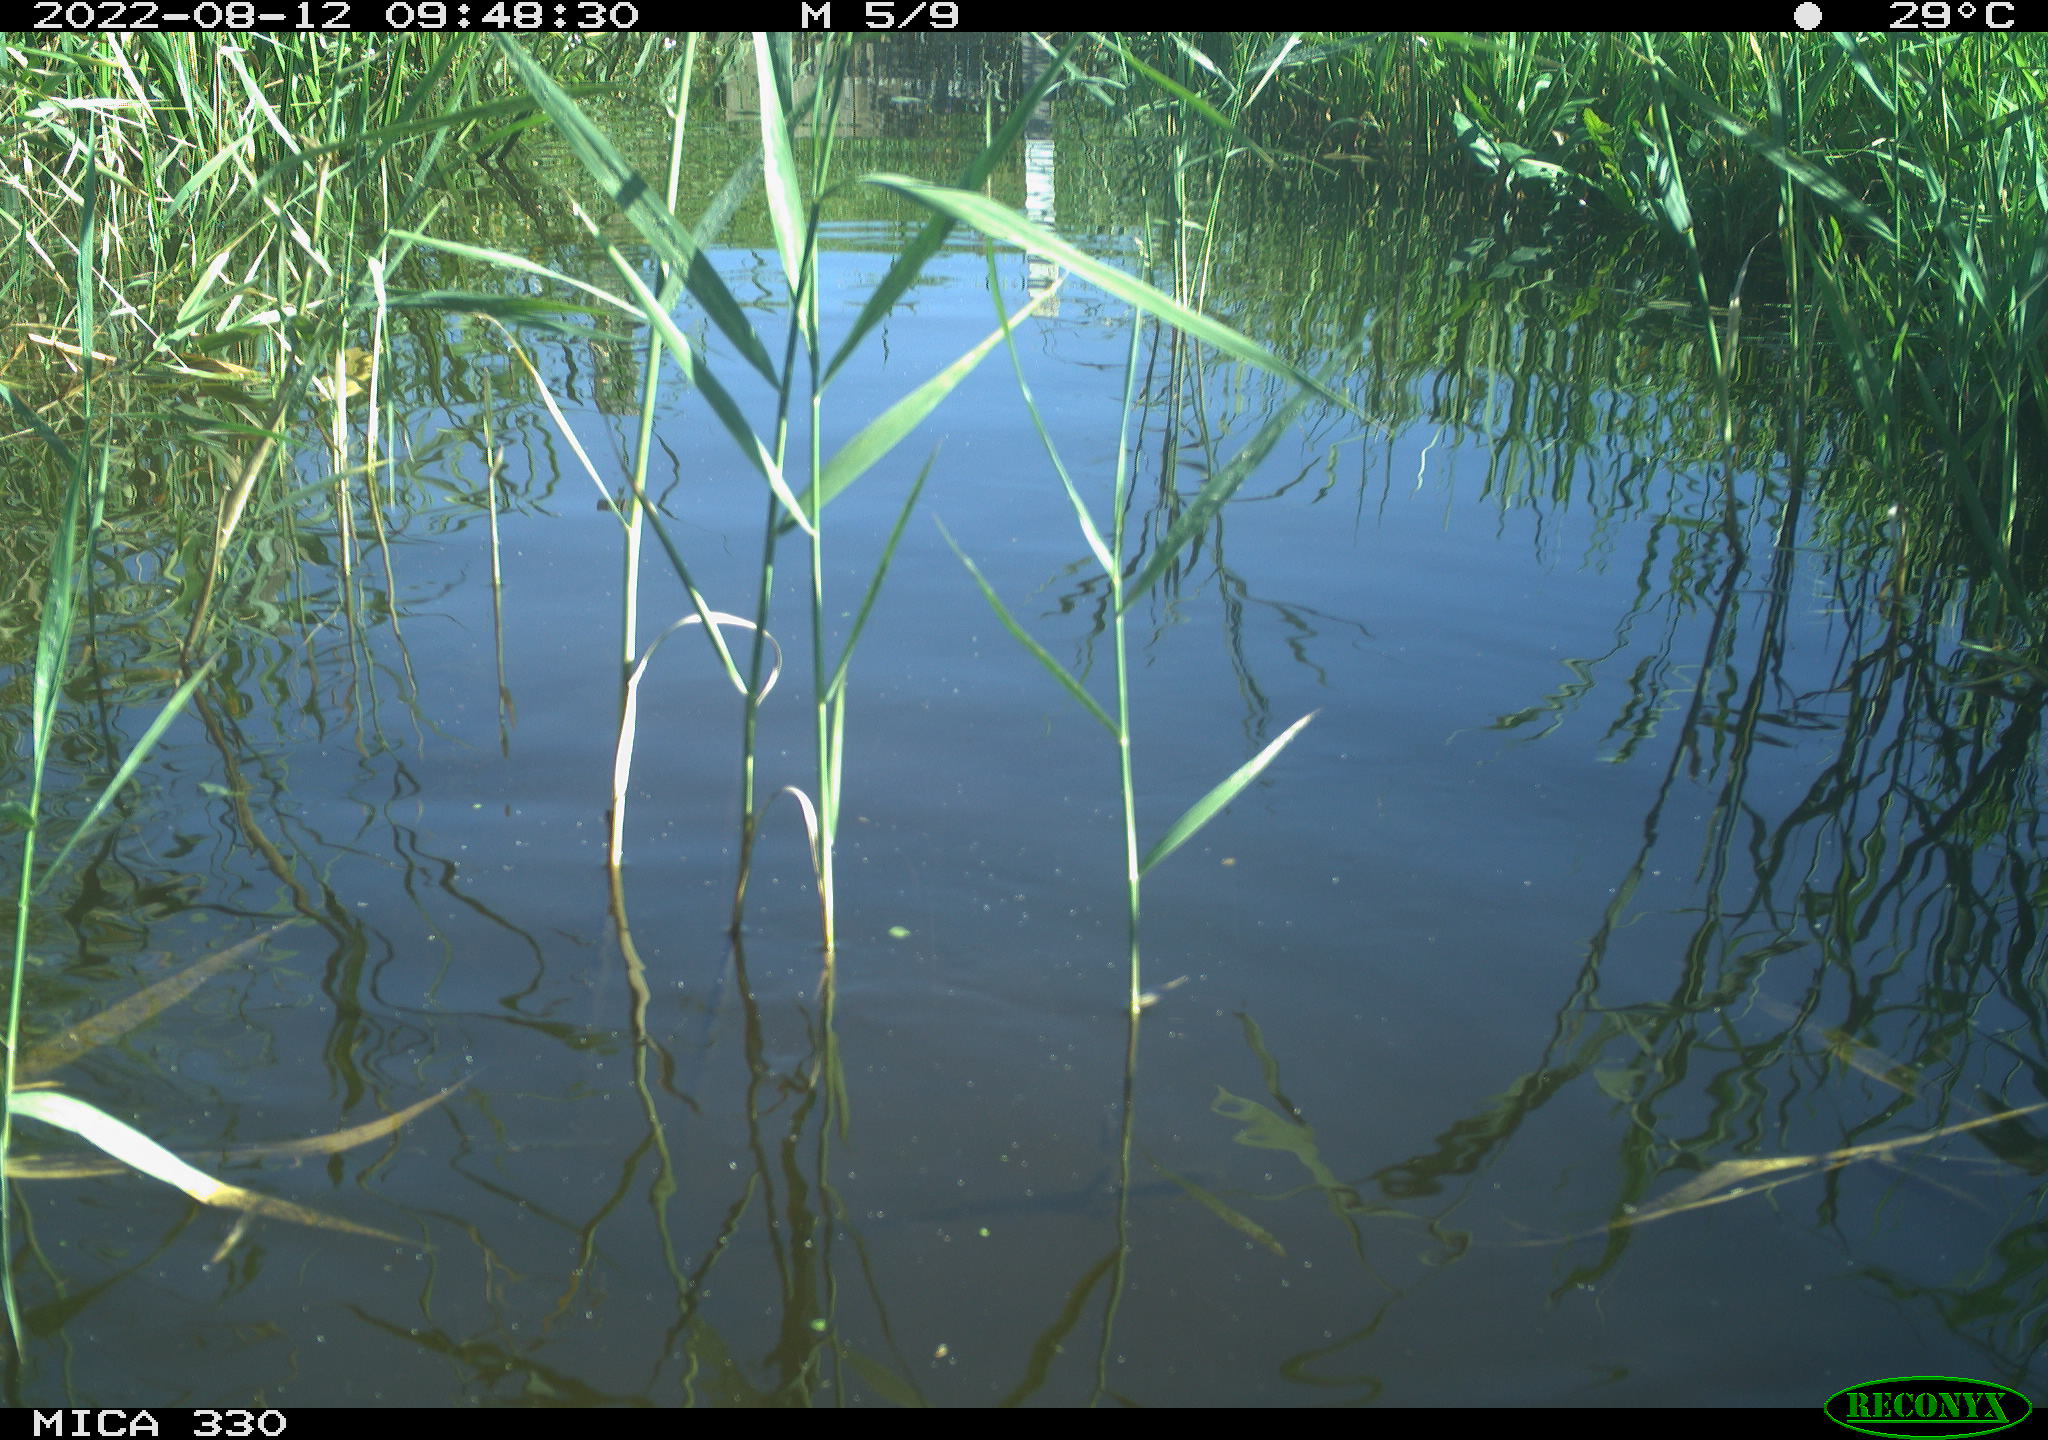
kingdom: Animalia
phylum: Chordata
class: Aves
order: Anseriformes
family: Anatidae
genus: Anas
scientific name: Anas platyrhynchos
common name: Mallard
